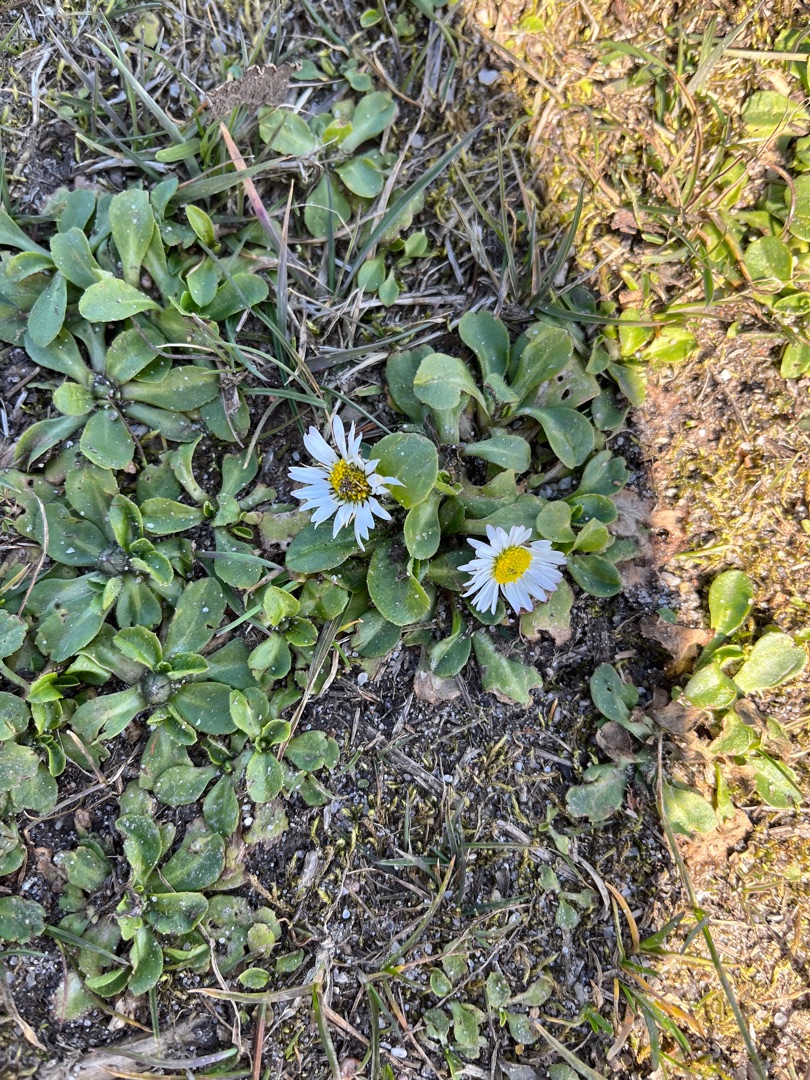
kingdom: Plantae
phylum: Tracheophyta
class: Magnoliopsida
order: Asterales
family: Asteraceae
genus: Bellis
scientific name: Bellis perennis
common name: Tusindfryd
